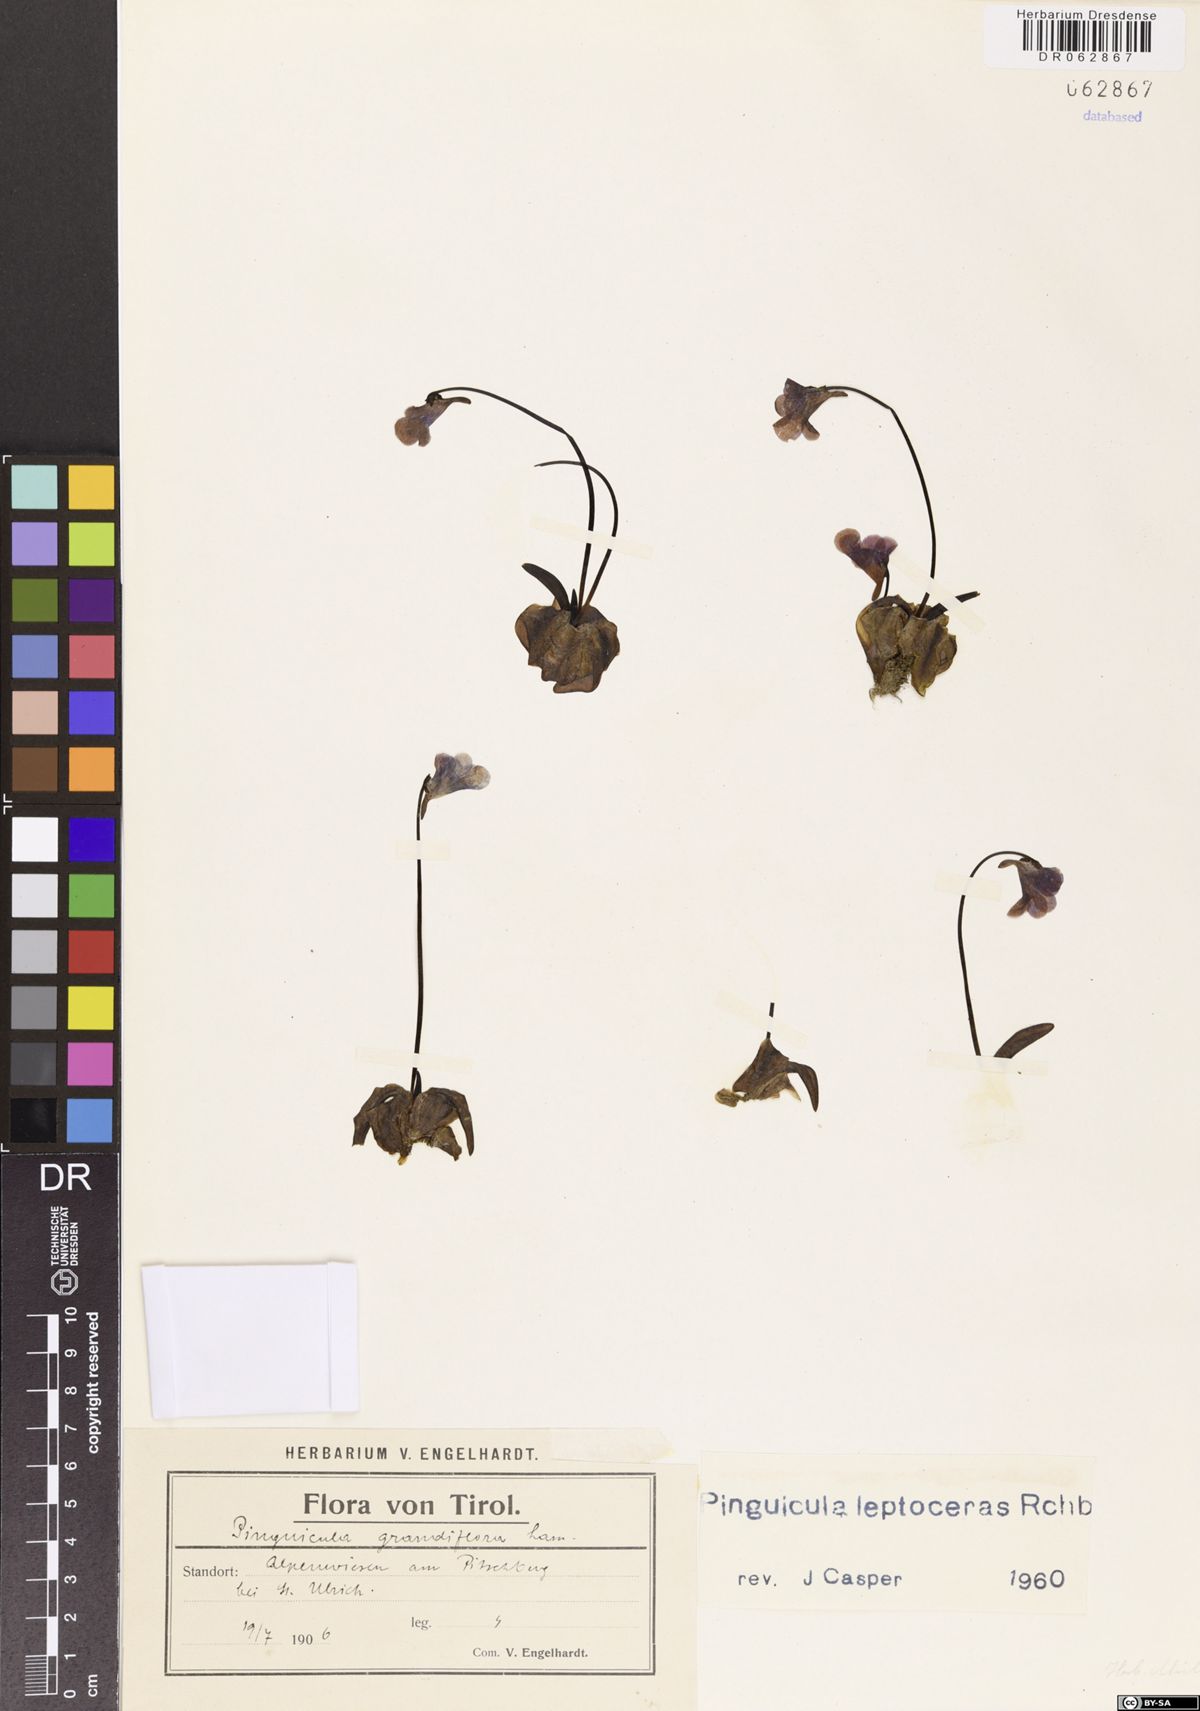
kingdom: Plantae
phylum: Tracheophyta
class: Magnoliopsida
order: Lamiales
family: Lentibulariaceae
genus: Pinguicula
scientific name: Pinguicula leptoceras
